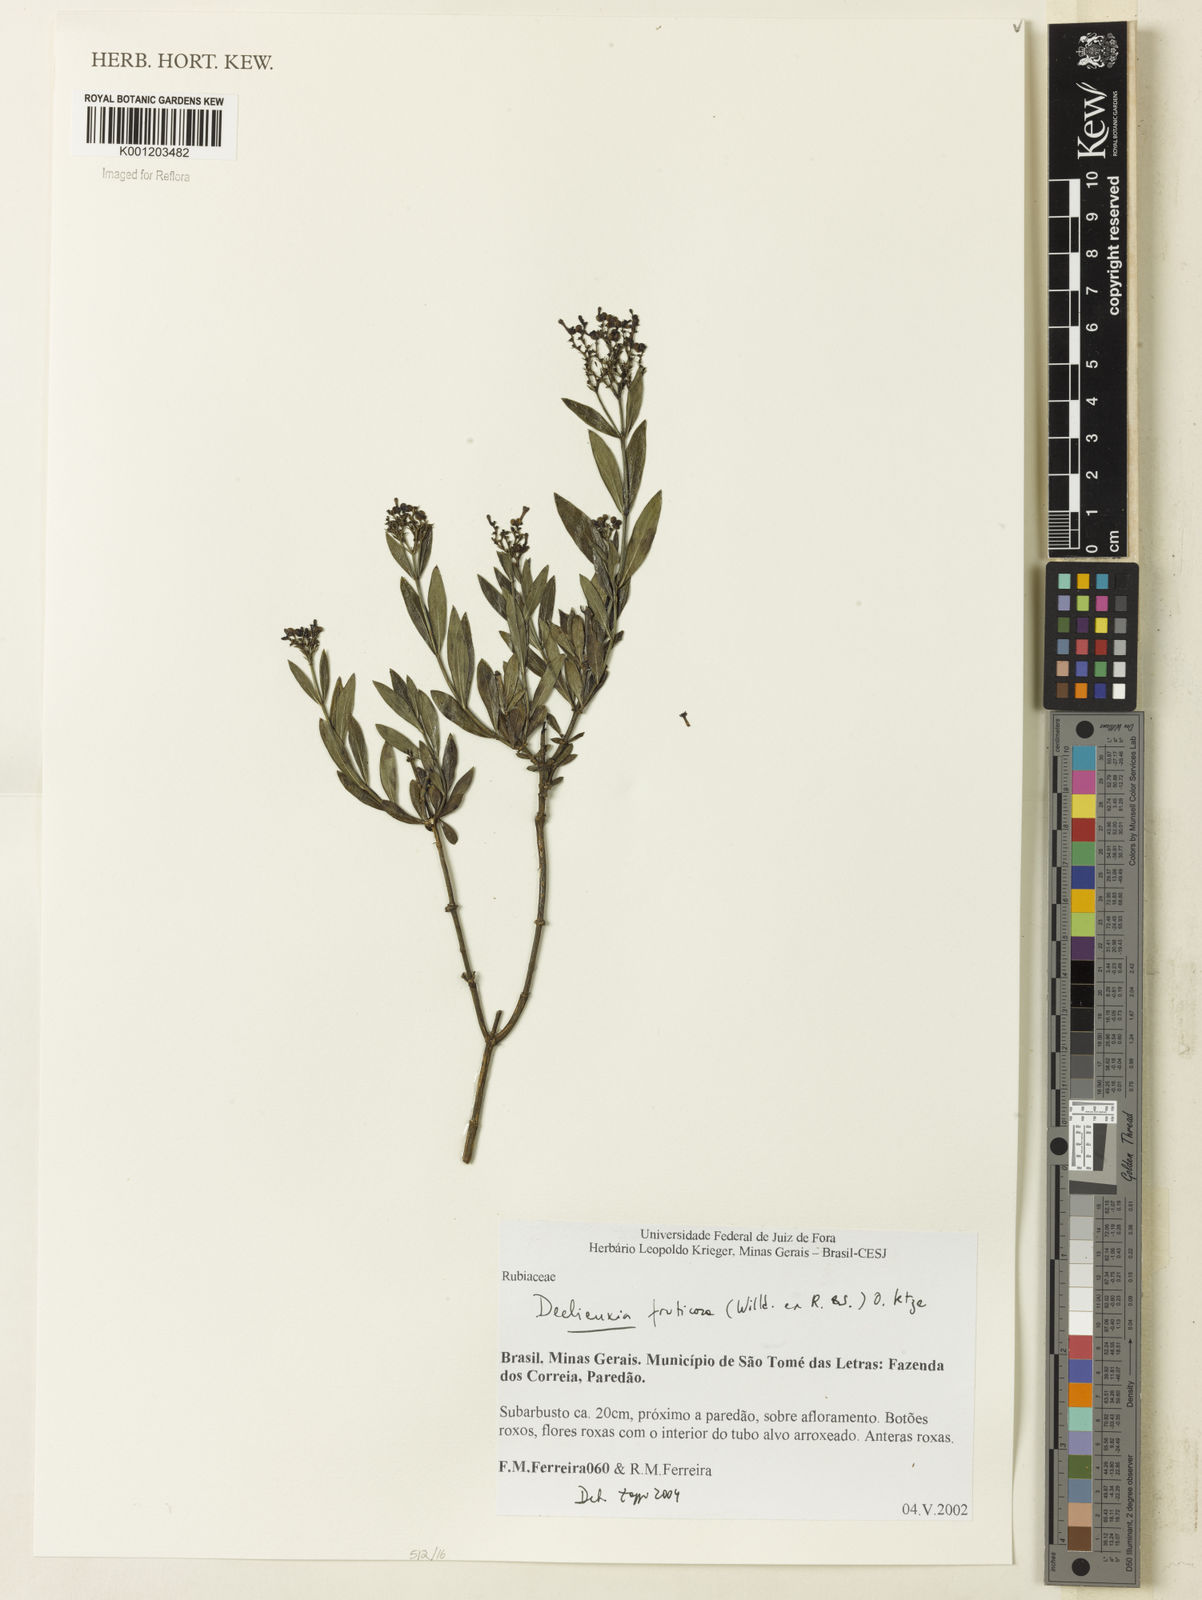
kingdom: Plantae
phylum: Tracheophyta
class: Magnoliopsida
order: Gentianales
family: Rubiaceae
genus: Declieuxia
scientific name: Declieuxia fruticosa
